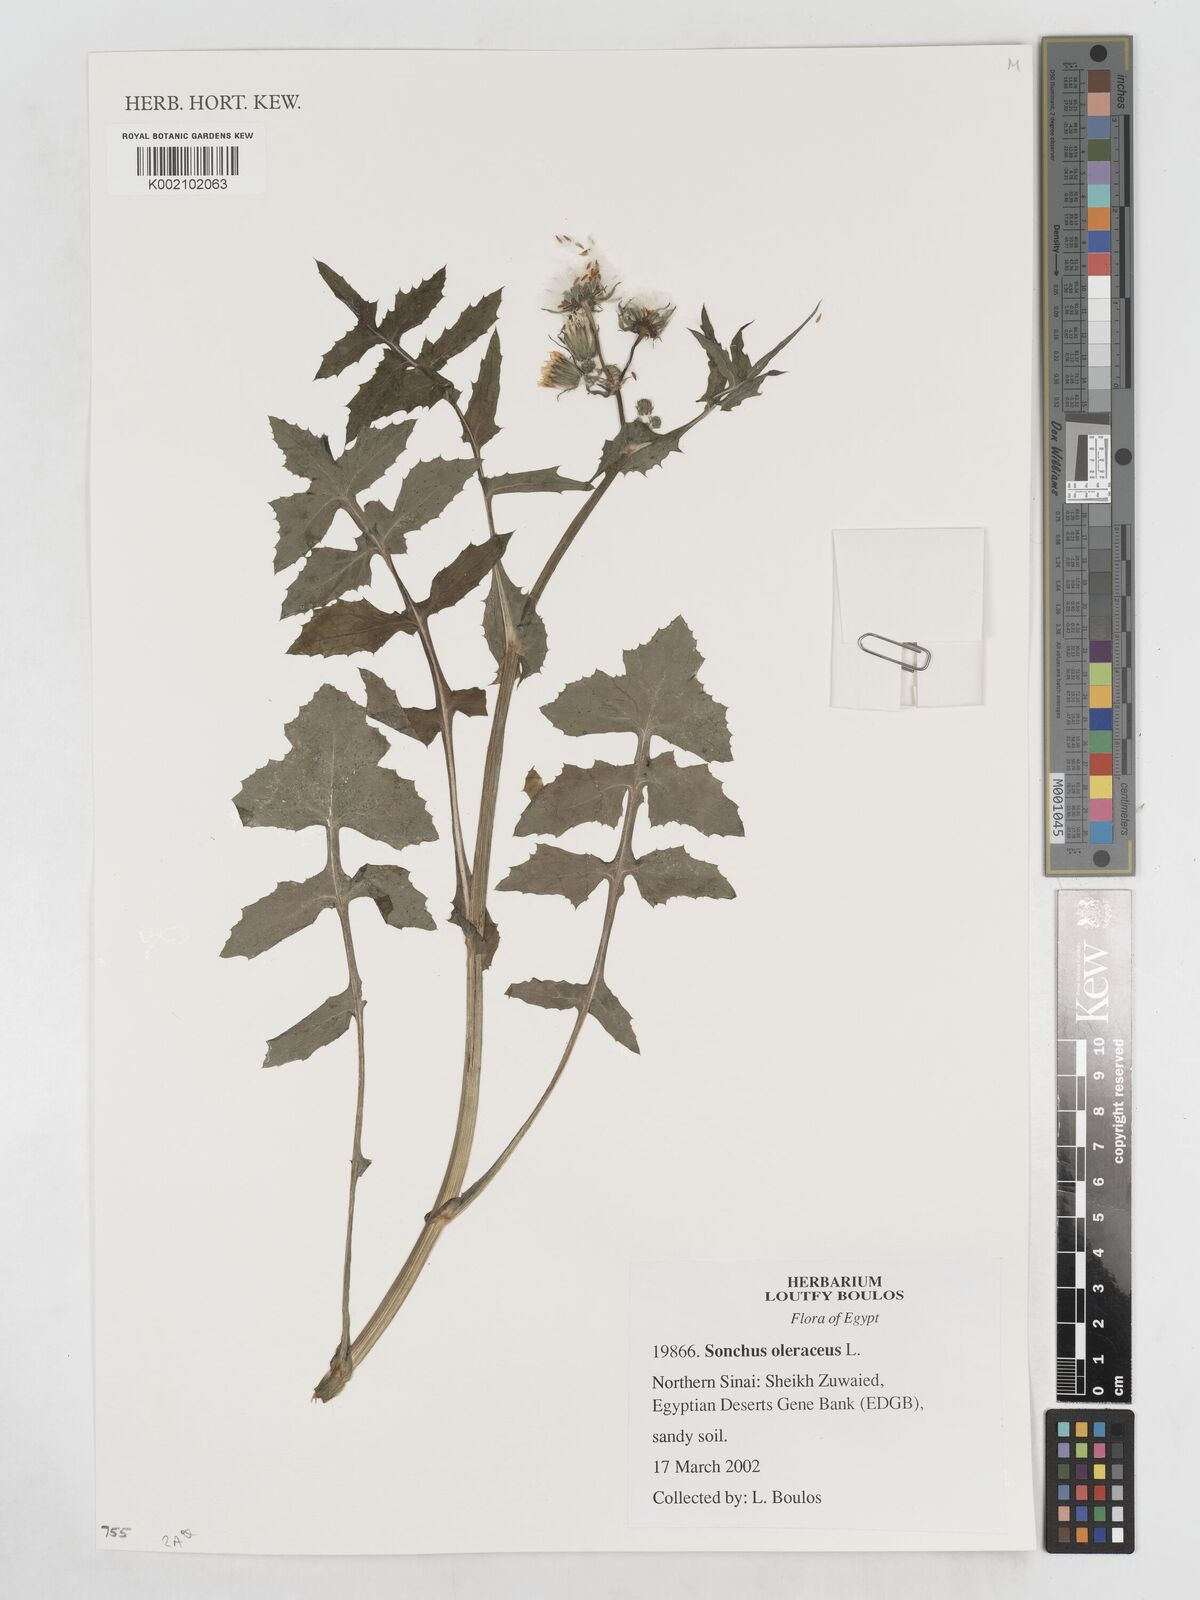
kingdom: Plantae
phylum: Tracheophyta
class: Magnoliopsida
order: Asterales
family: Asteraceae
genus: Sonchus
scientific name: Sonchus oleraceus
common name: Common sowthistle
